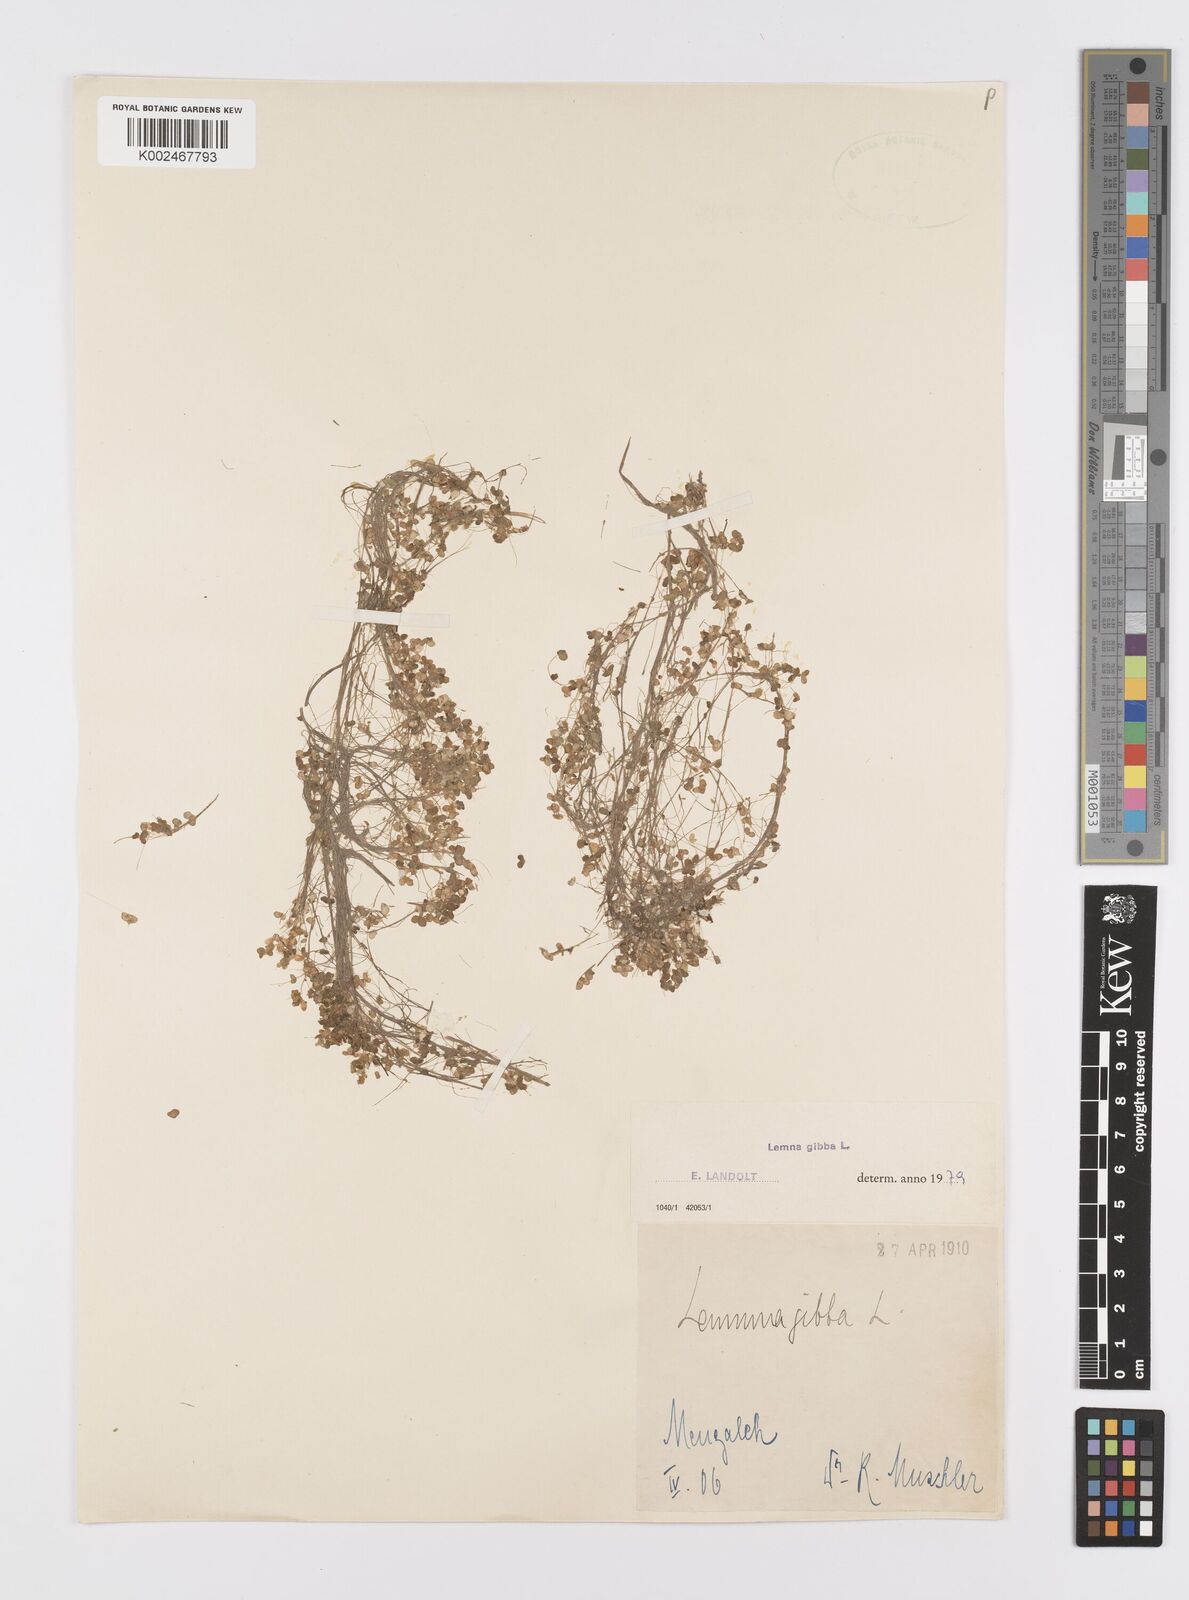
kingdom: Plantae
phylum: Tracheophyta
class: Liliopsida
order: Alismatales
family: Araceae
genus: Lemna
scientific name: Lemna gibba
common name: Fat duckweed
